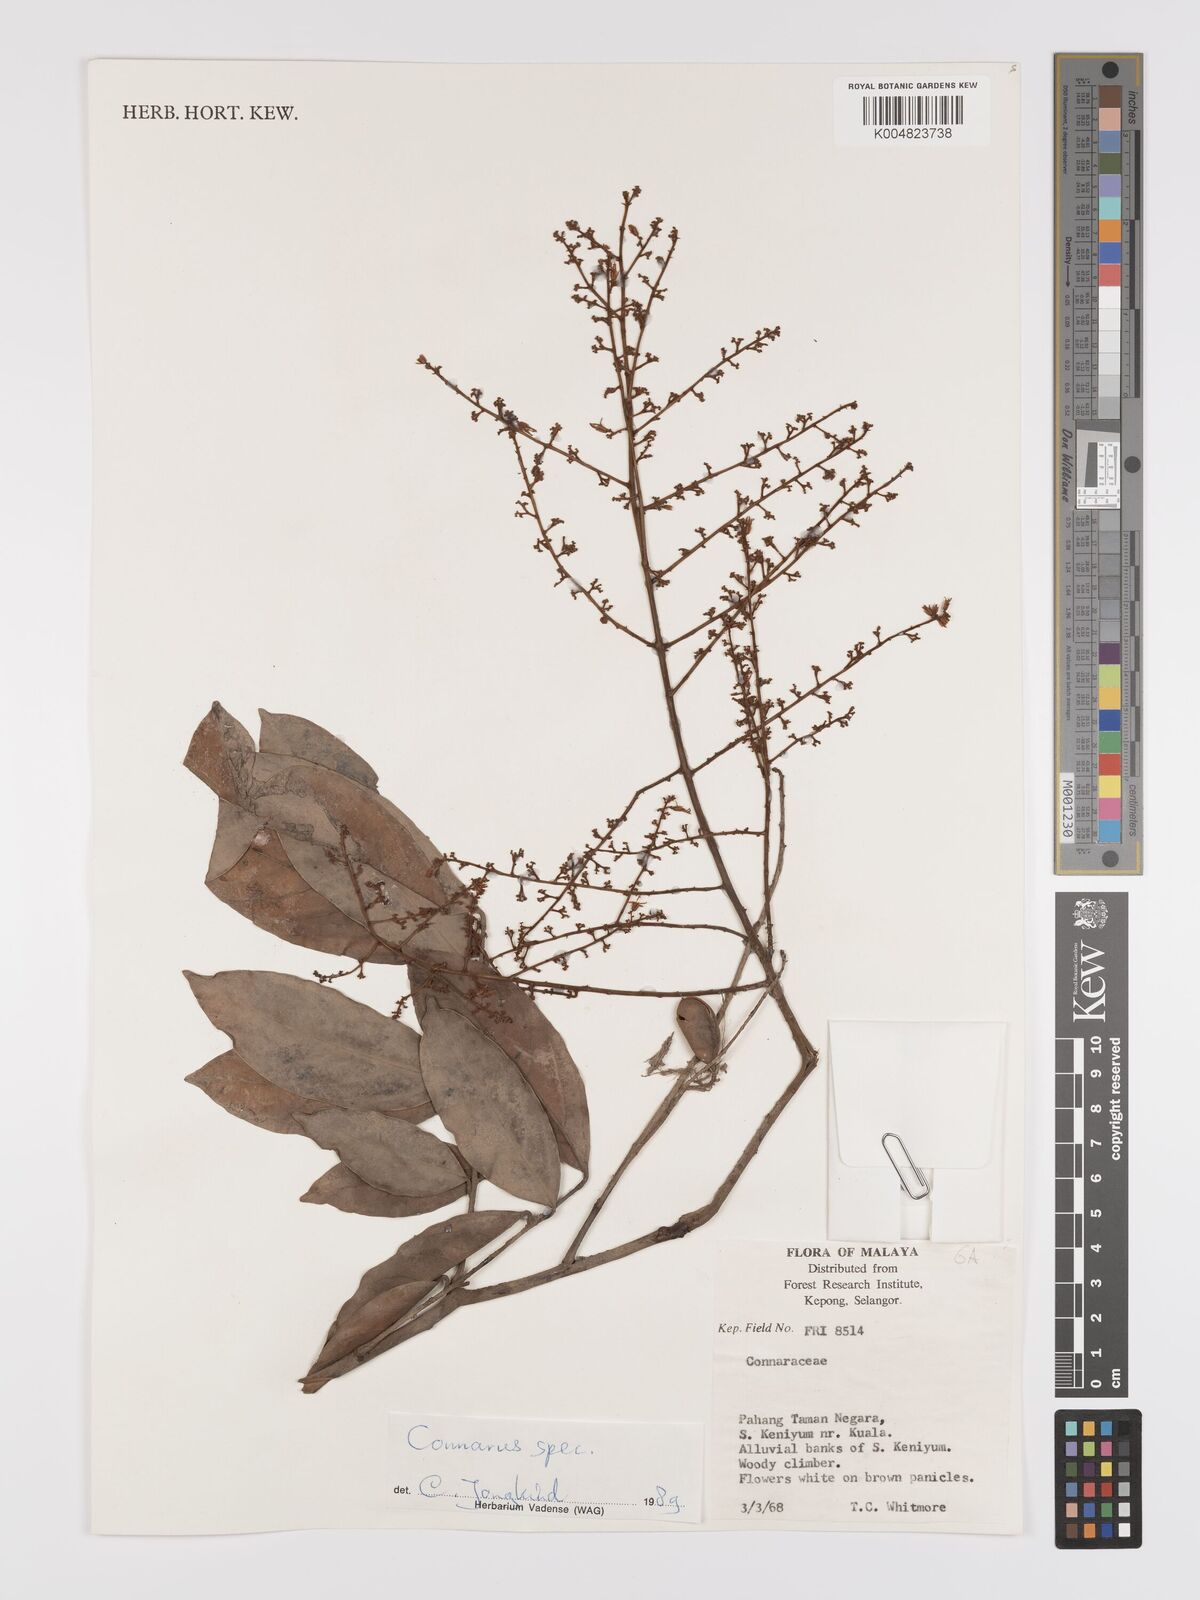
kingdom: Plantae
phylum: Tracheophyta
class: Magnoliopsida
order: Oxalidales
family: Connaraceae
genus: Connarus
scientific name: Connarus
